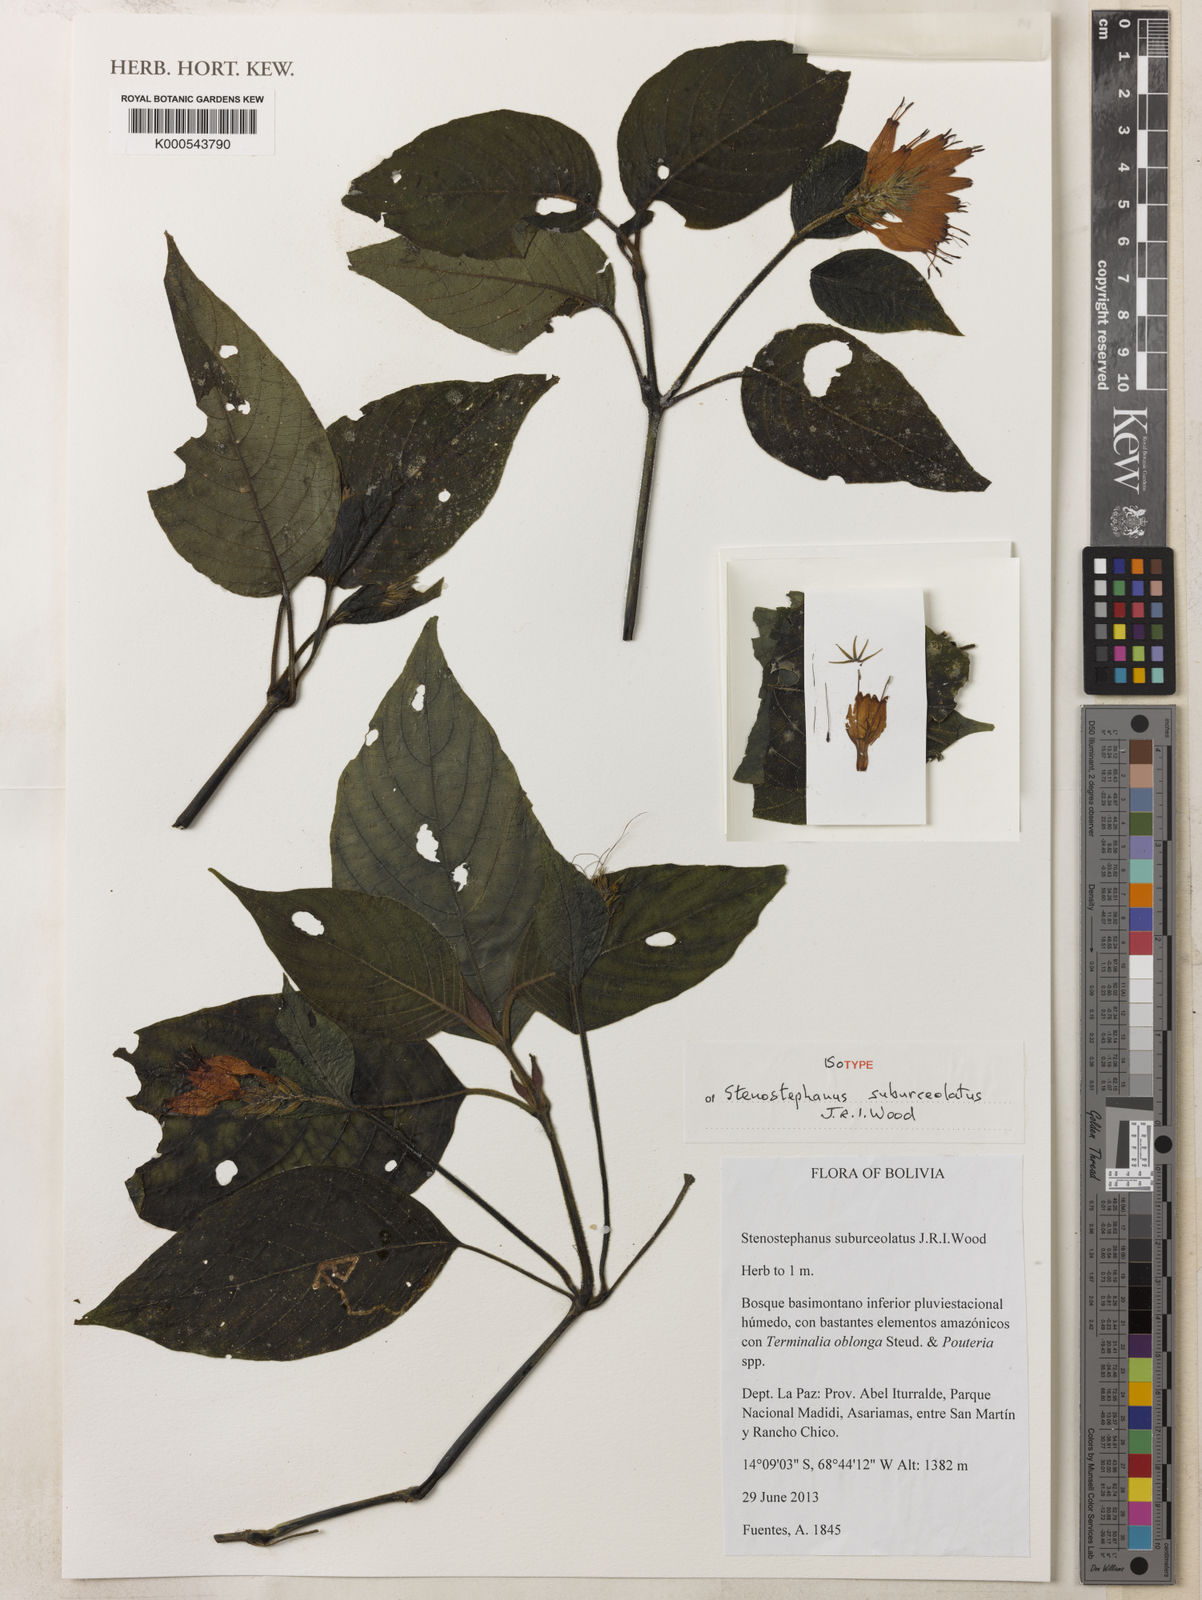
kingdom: Plantae
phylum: Tracheophyta
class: Magnoliopsida
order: Lamiales
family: Acanthaceae
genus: Stenostephanus
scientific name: Stenostephanus suburceolatus
